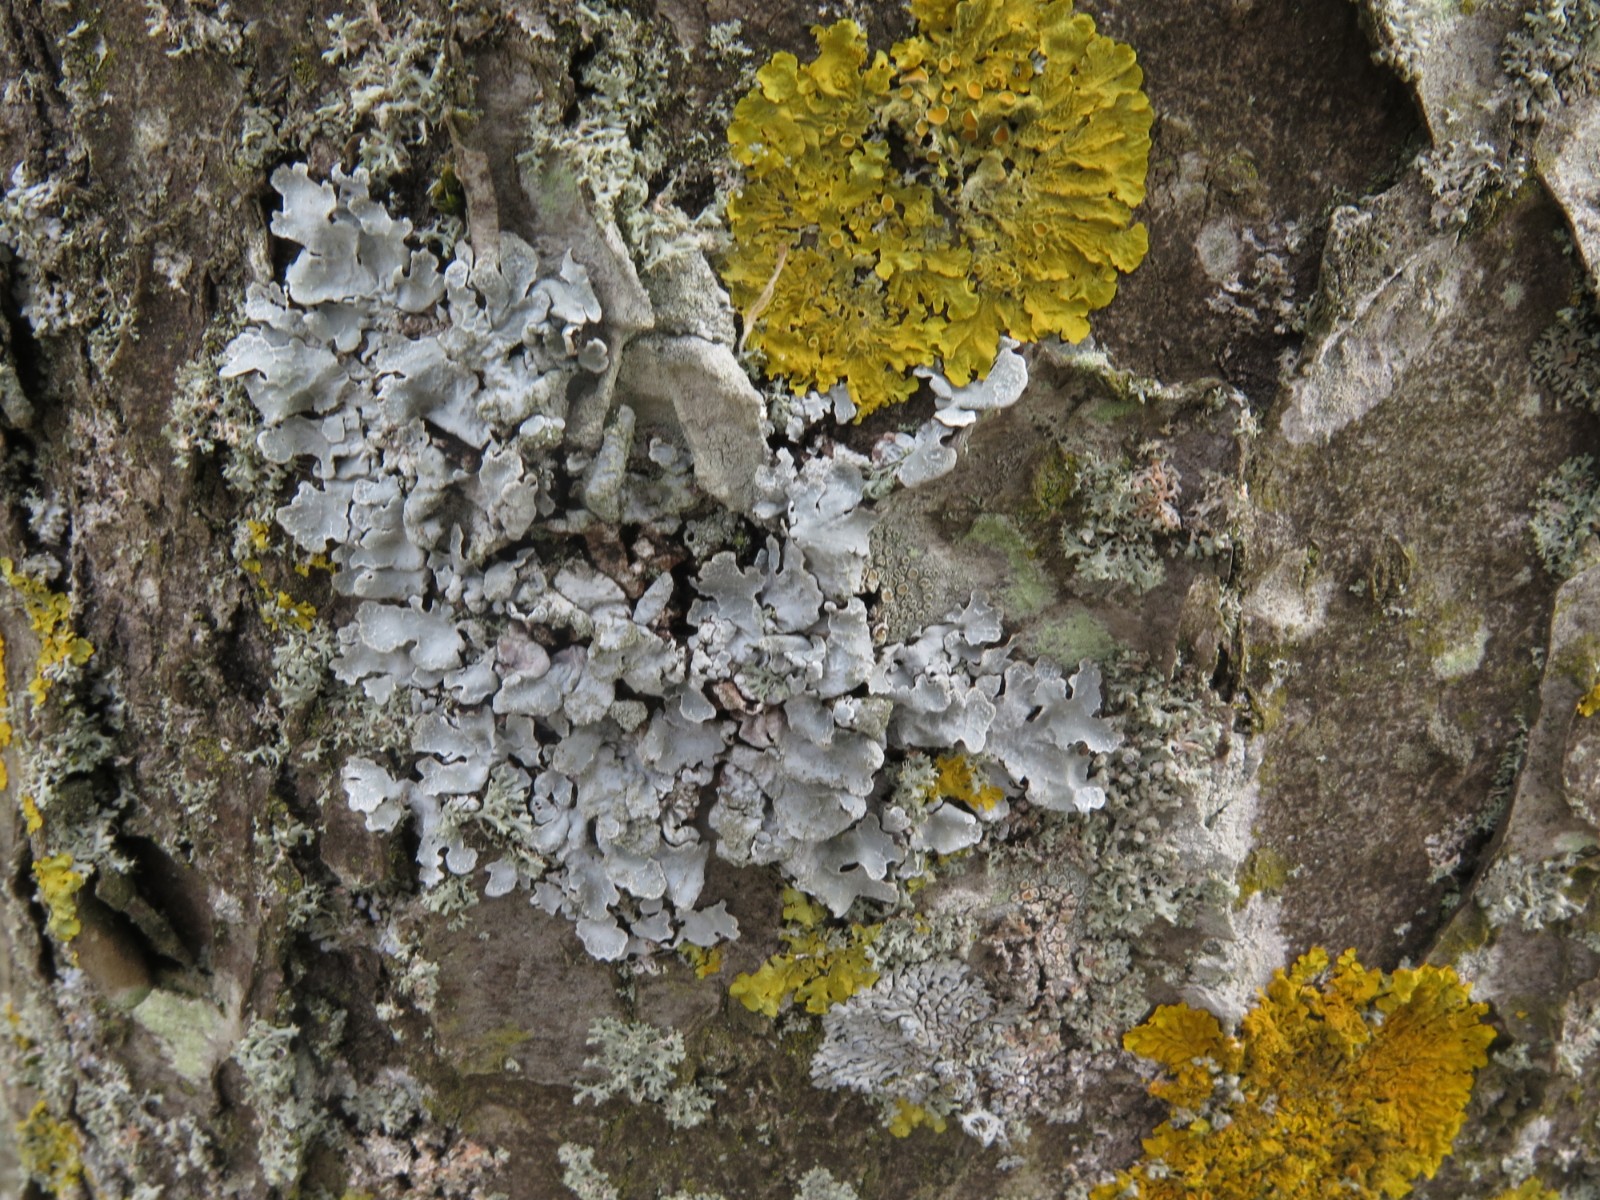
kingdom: Fungi
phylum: Ascomycota
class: Lecanoromycetes
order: Lecanorales
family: Parmeliaceae
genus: Parmelia
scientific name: Parmelia sulcata
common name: rynket skållav
